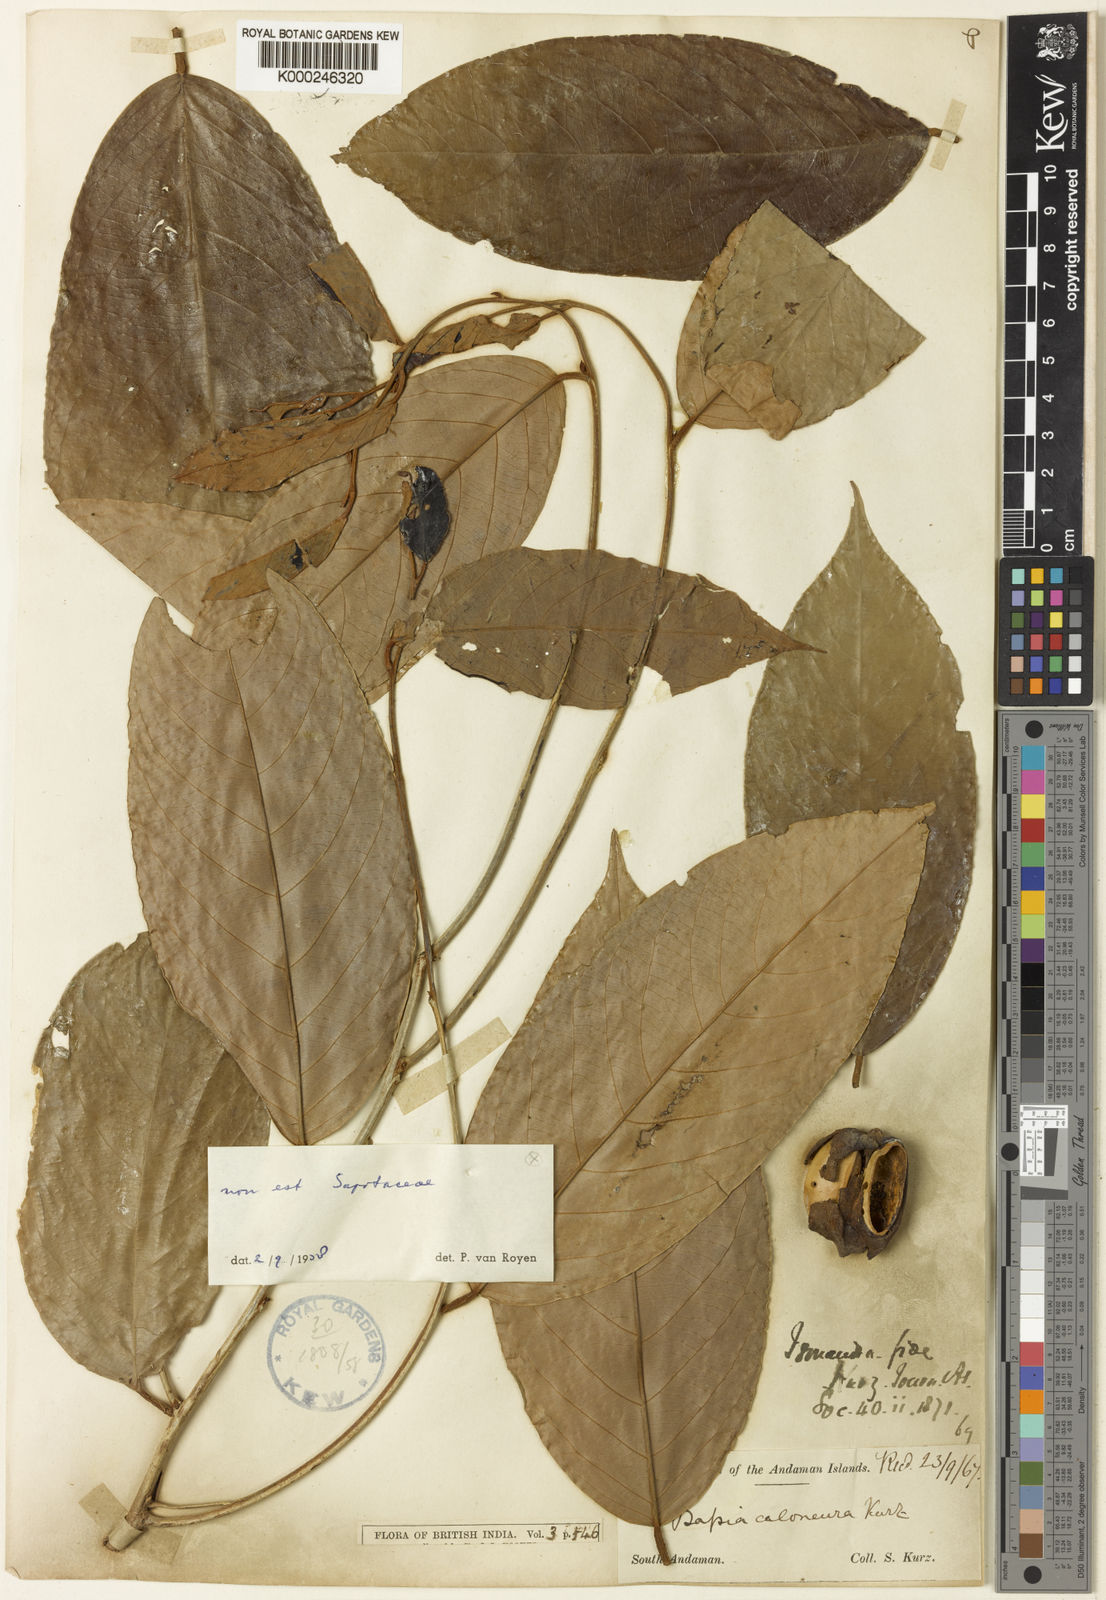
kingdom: Plantae
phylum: Tracheophyta
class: Magnoliopsida
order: Malpighiales
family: Phyllanthaceae
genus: Cleistanthus
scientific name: Cleistanthus oblongifolius
